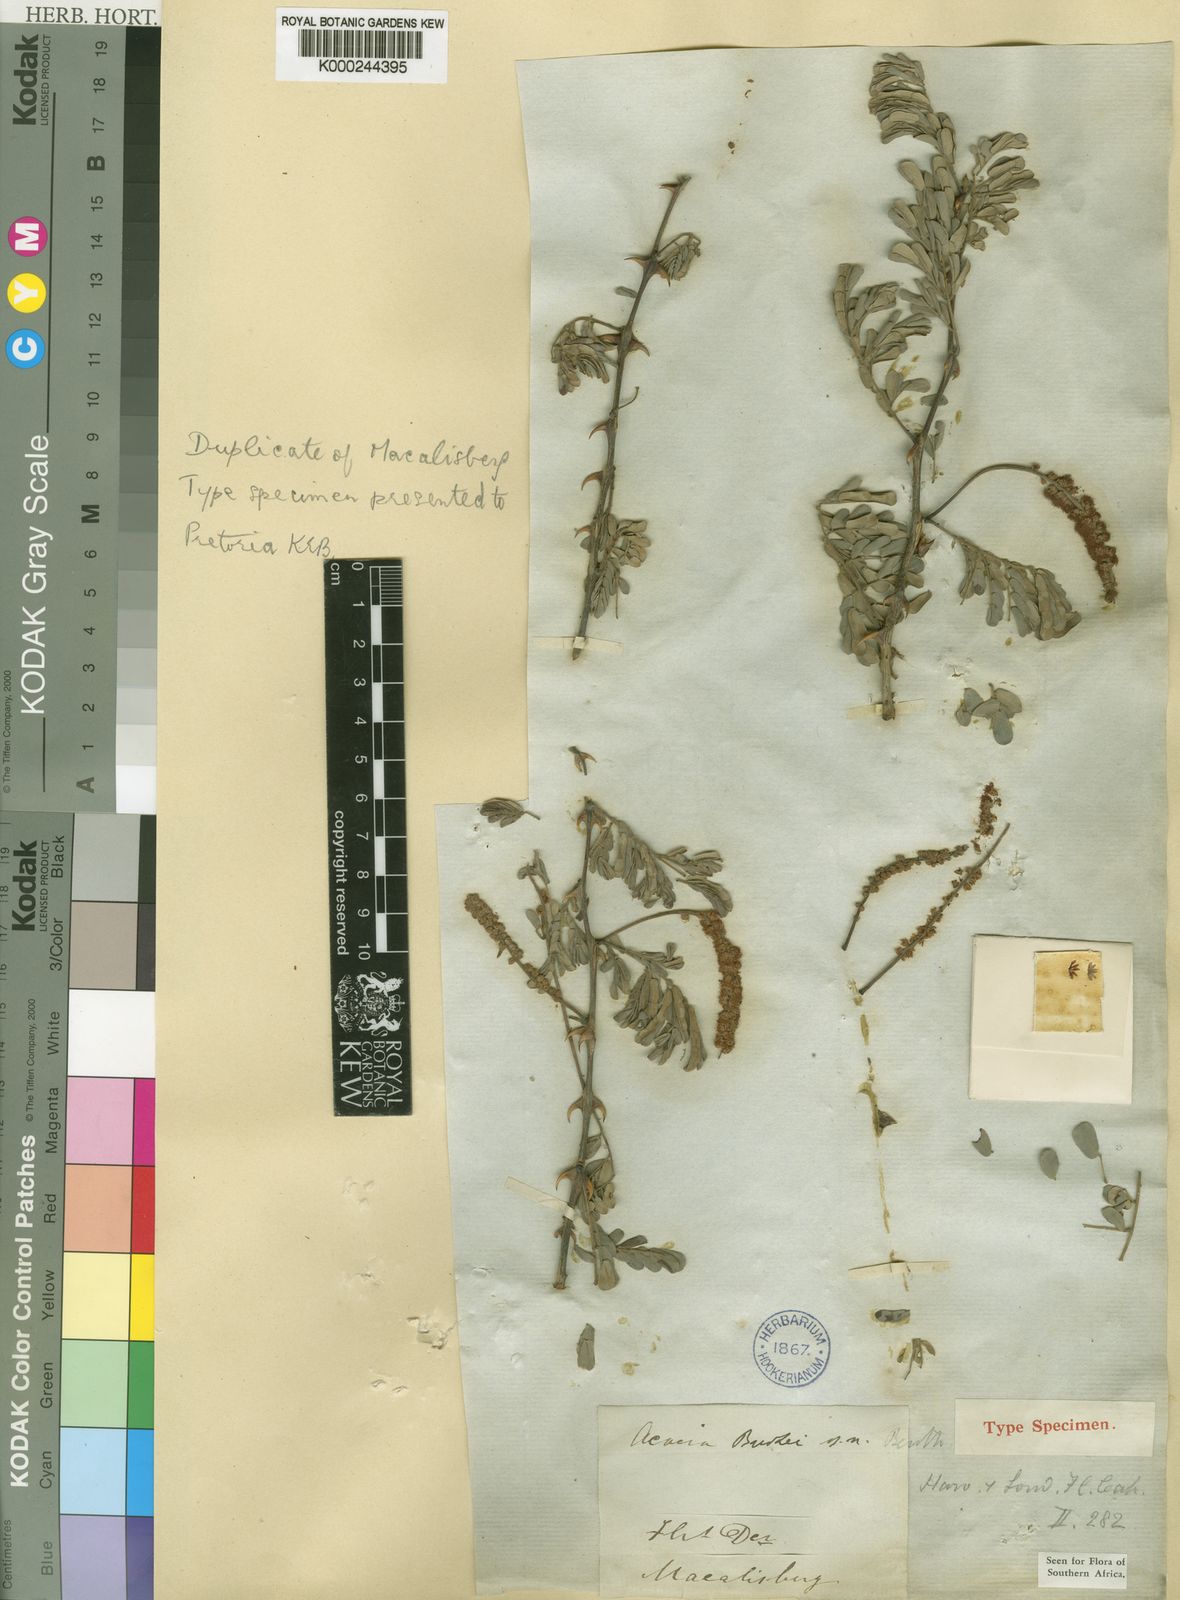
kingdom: Plantae
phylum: Tracheophyta
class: Magnoliopsida
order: Fabales
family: Fabaceae
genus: Senegalia
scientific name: Senegalia burkei
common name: Black monkey thorn
